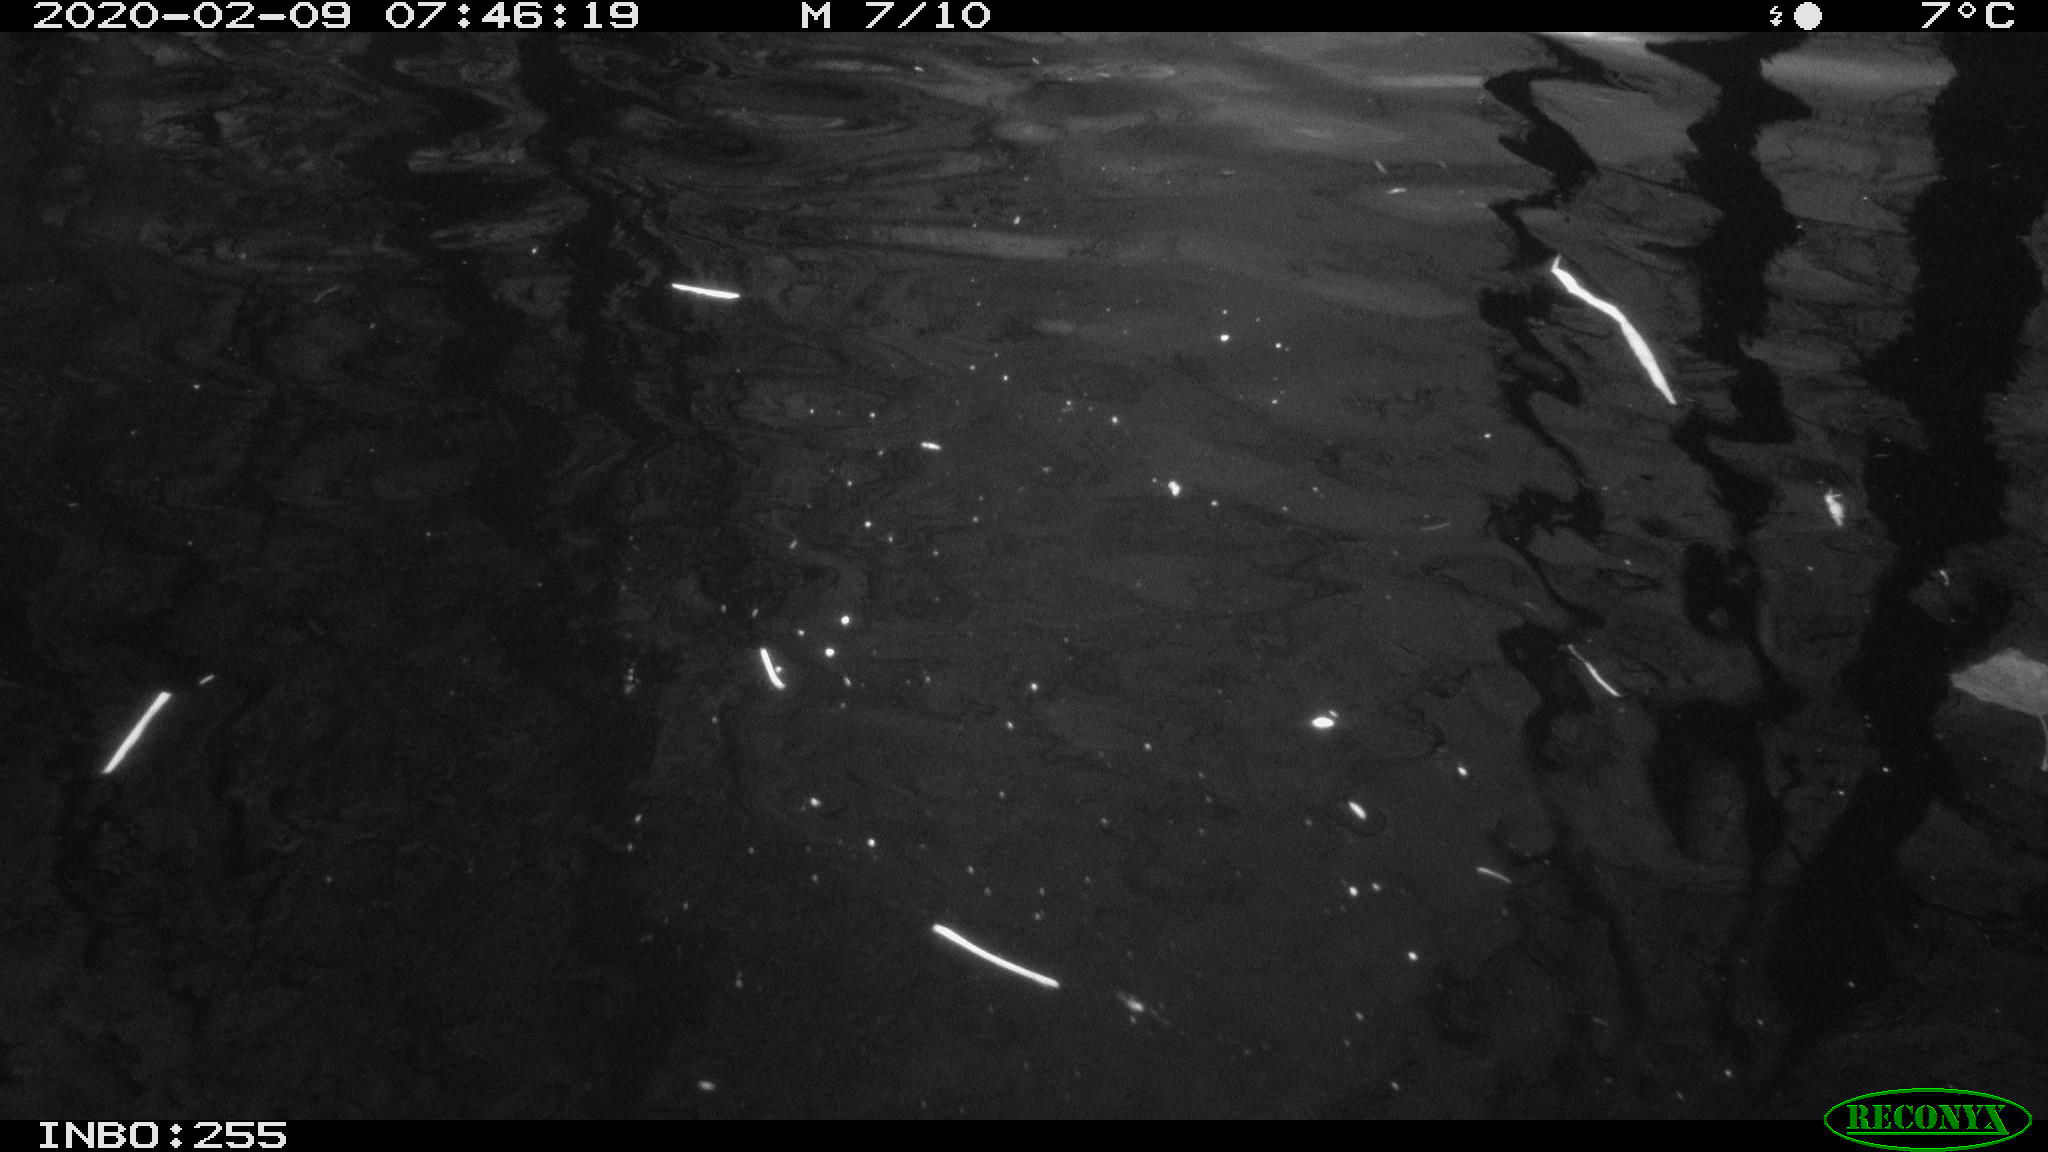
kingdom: Animalia
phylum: Chordata
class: Aves
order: Gruiformes
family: Rallidae
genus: Fulica
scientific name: Fulica atra
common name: Eurasian coot
